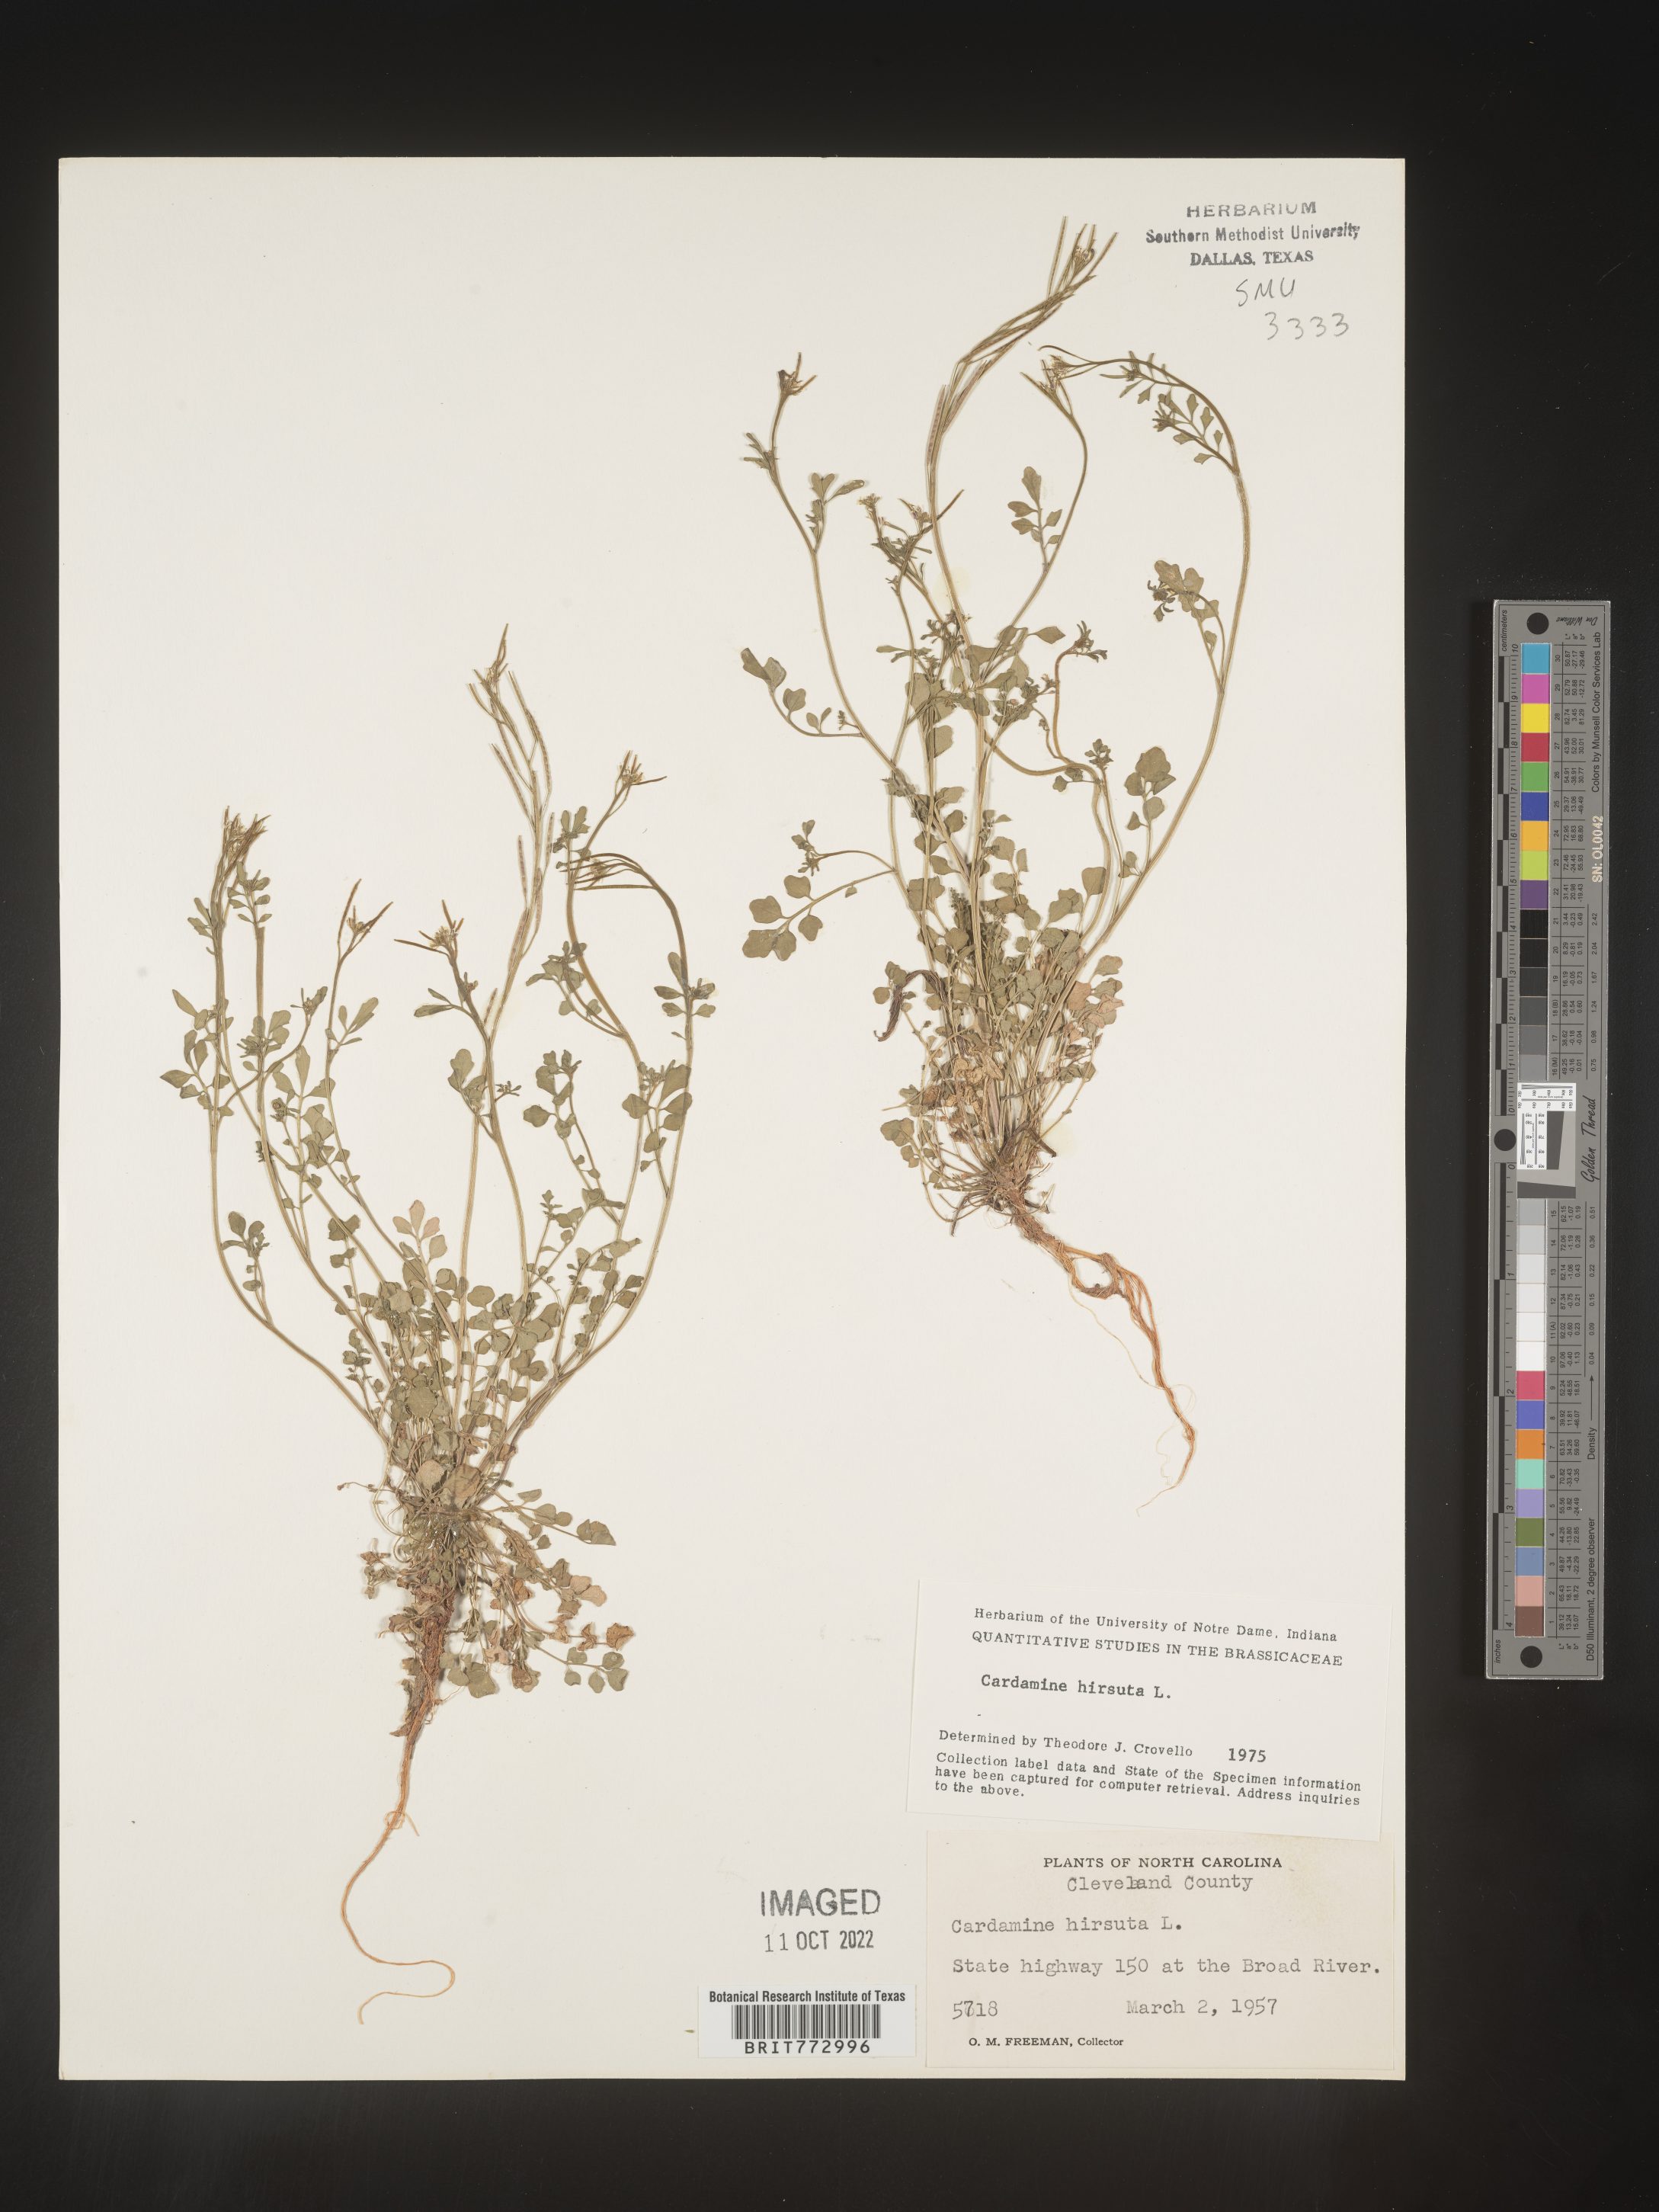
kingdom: Plantae
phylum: Tracheophyta
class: Magnoliopsida
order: Brassicales
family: Brassicaceae
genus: Cardamine
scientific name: Cardamine hirsuta
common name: Hairy bittercress
